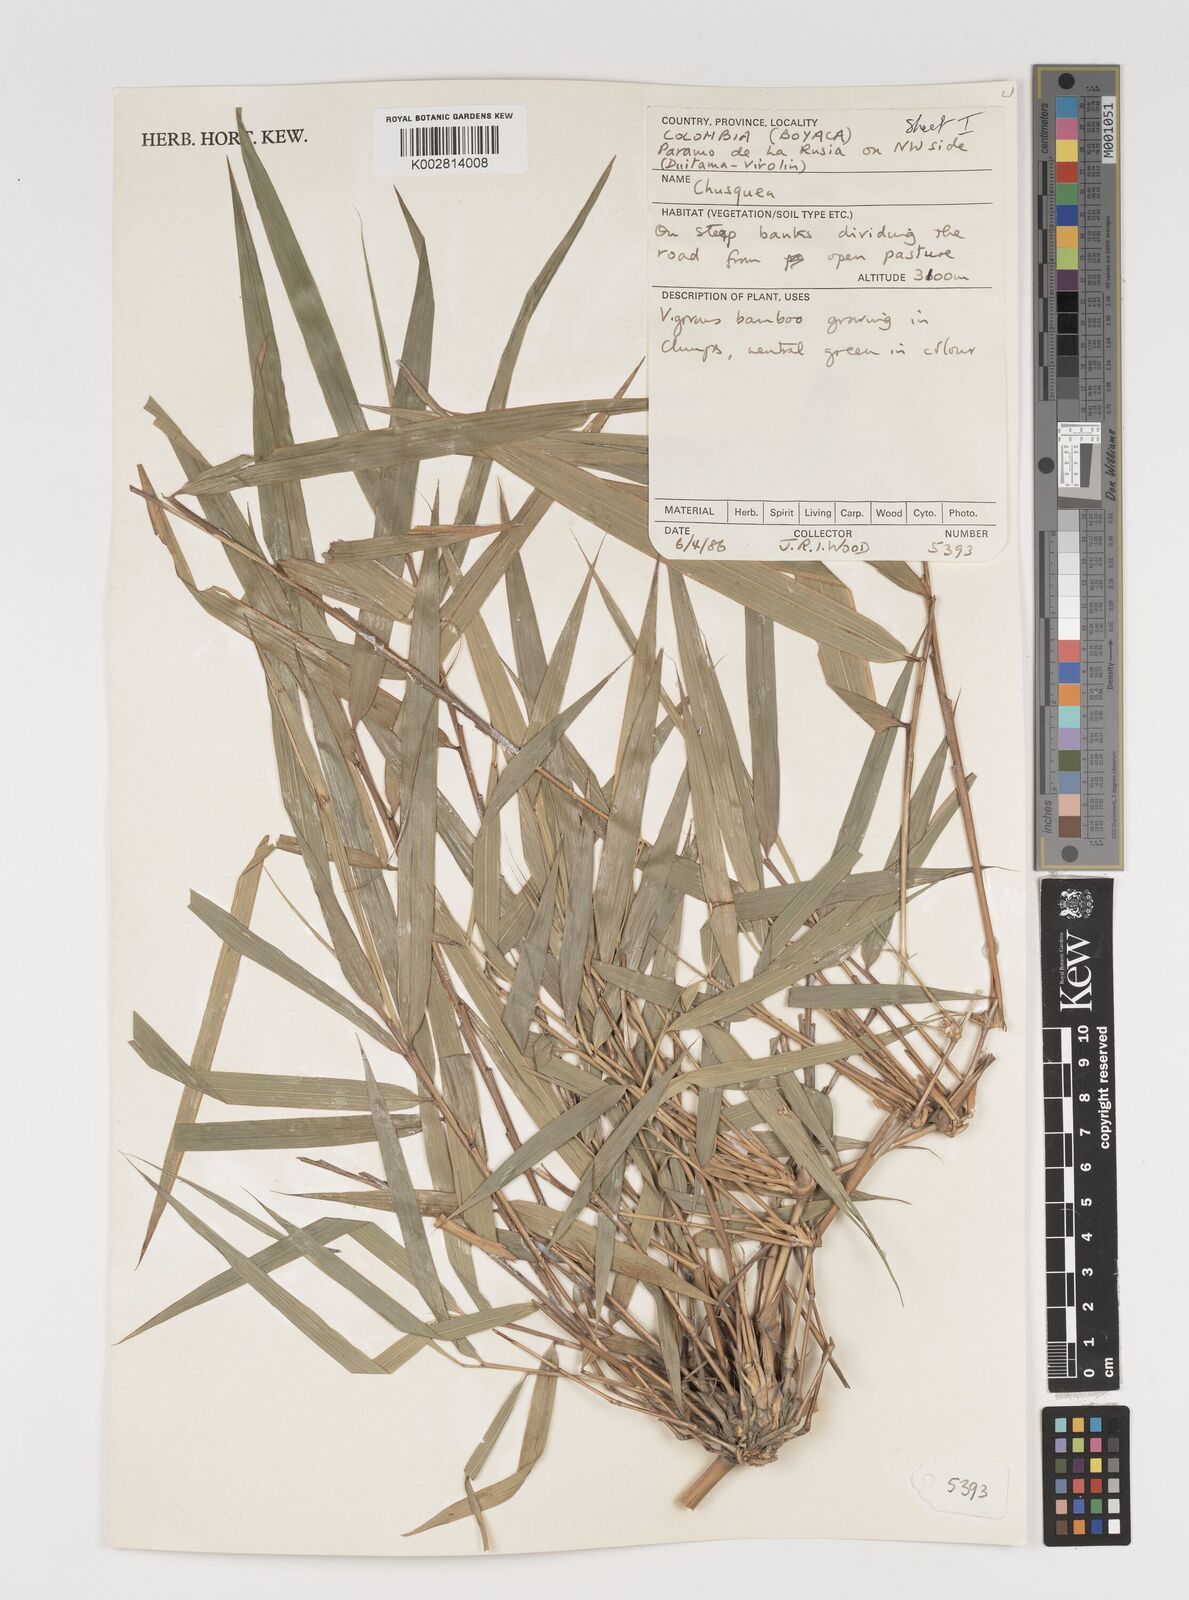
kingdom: Plantae
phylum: Tracheophyta
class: Liliopsida
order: Poales
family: Poaceae
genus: Chusquea
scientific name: Chusquea
